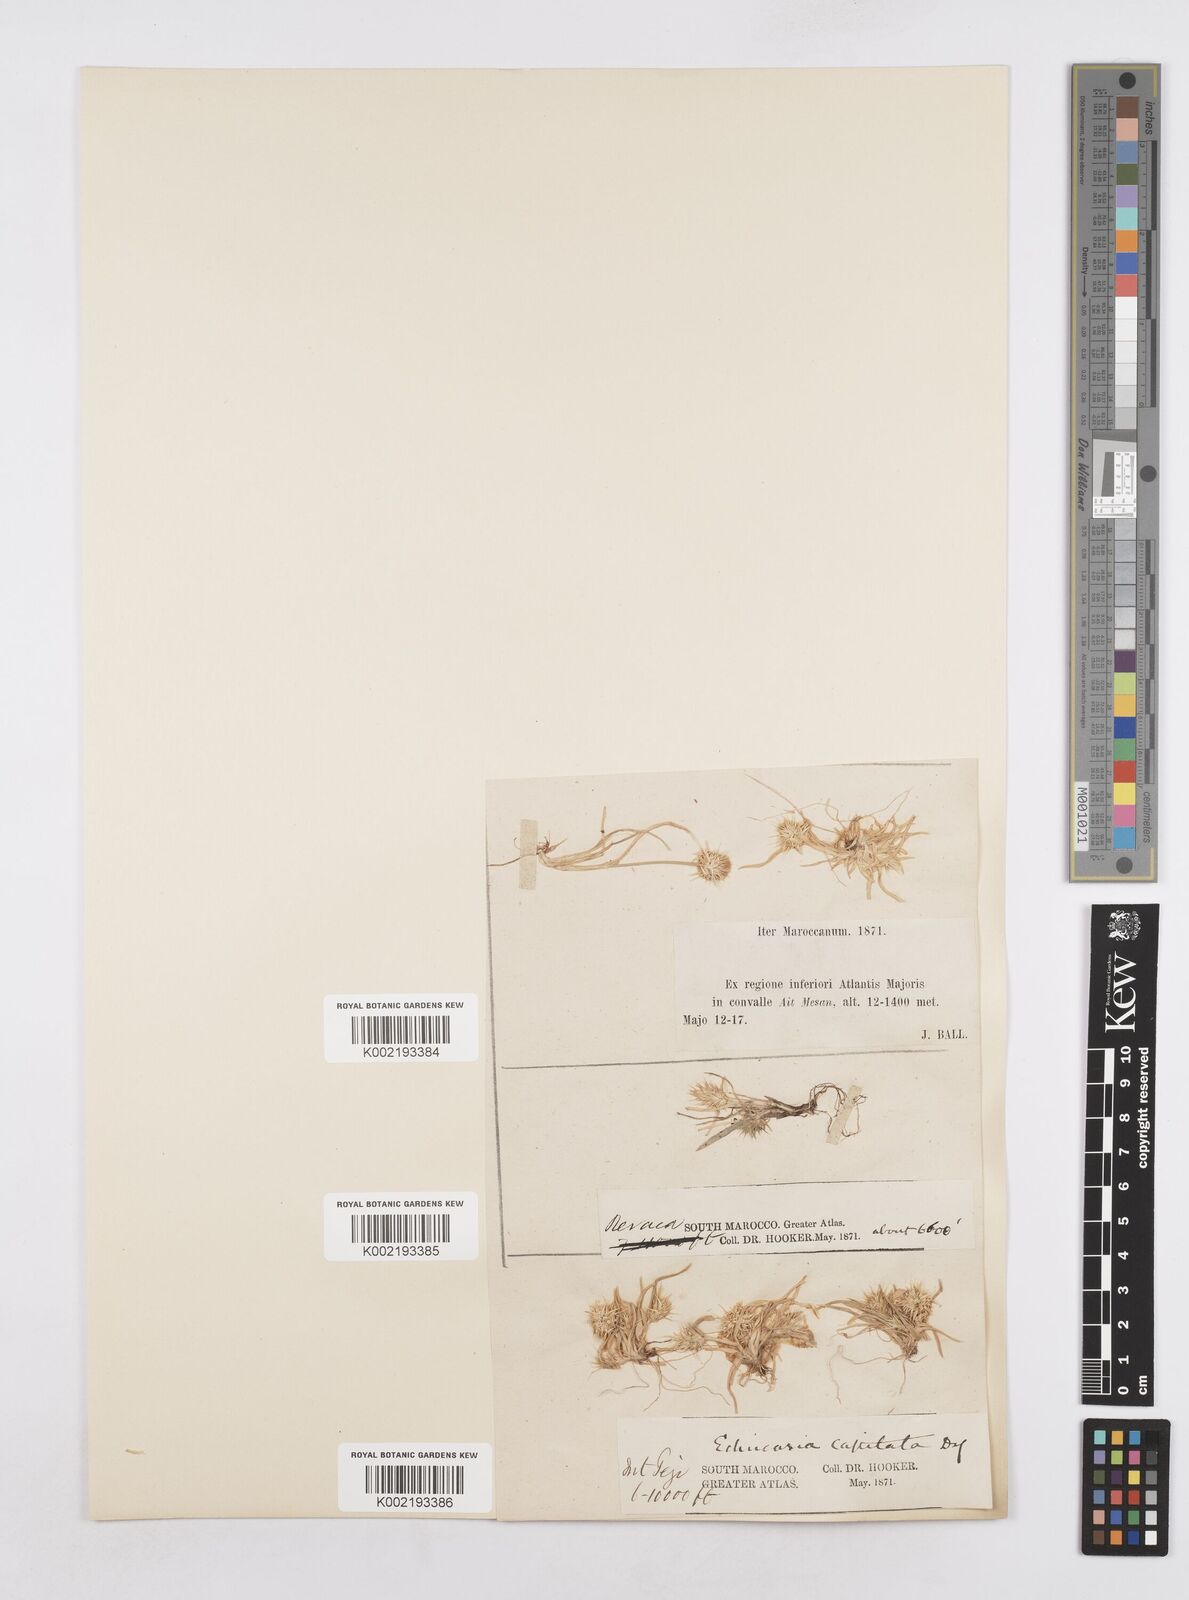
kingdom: Plantae
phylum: Tracheophyta
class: Liliopsida
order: Poales
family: Poaceae
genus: Echinaria
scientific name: Echinaria capitata
